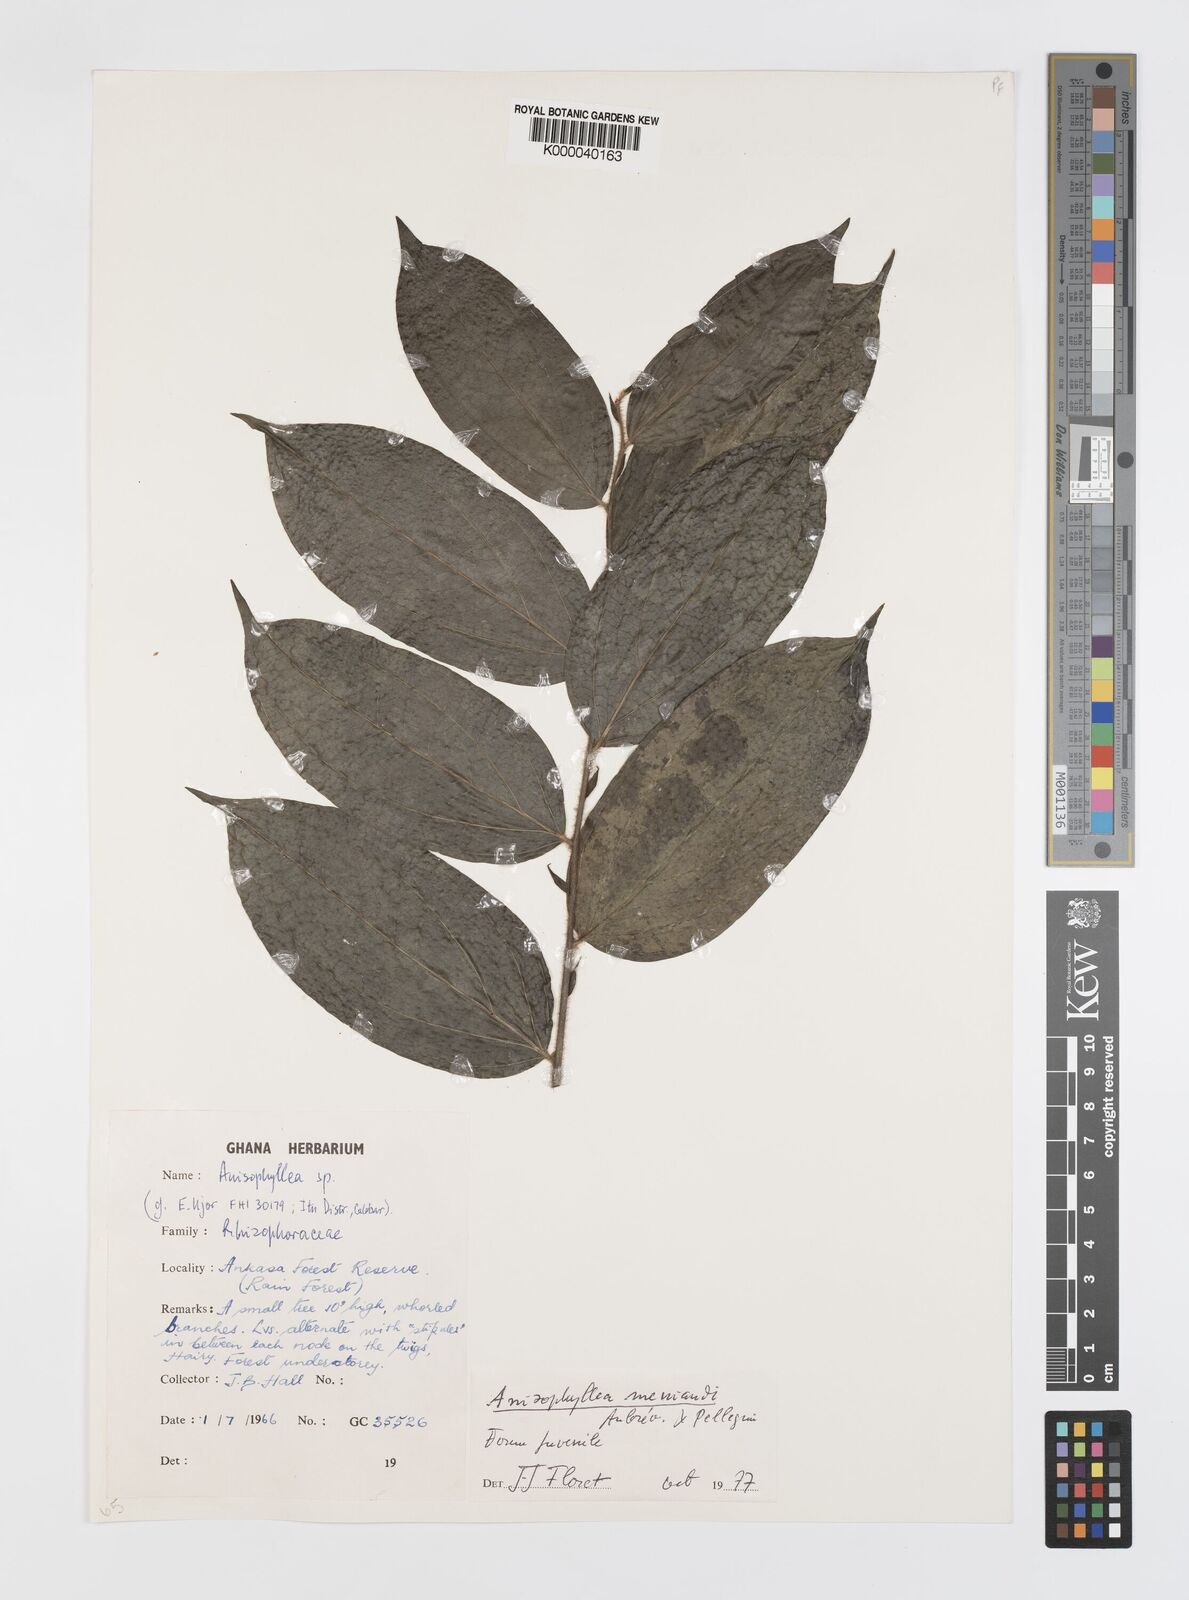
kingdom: Plantae
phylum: Tracheophyta
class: Magnoliopsida
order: Cucurbitales
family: Anisophylleaceae
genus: Anisophyllea
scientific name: Anisophyllea
